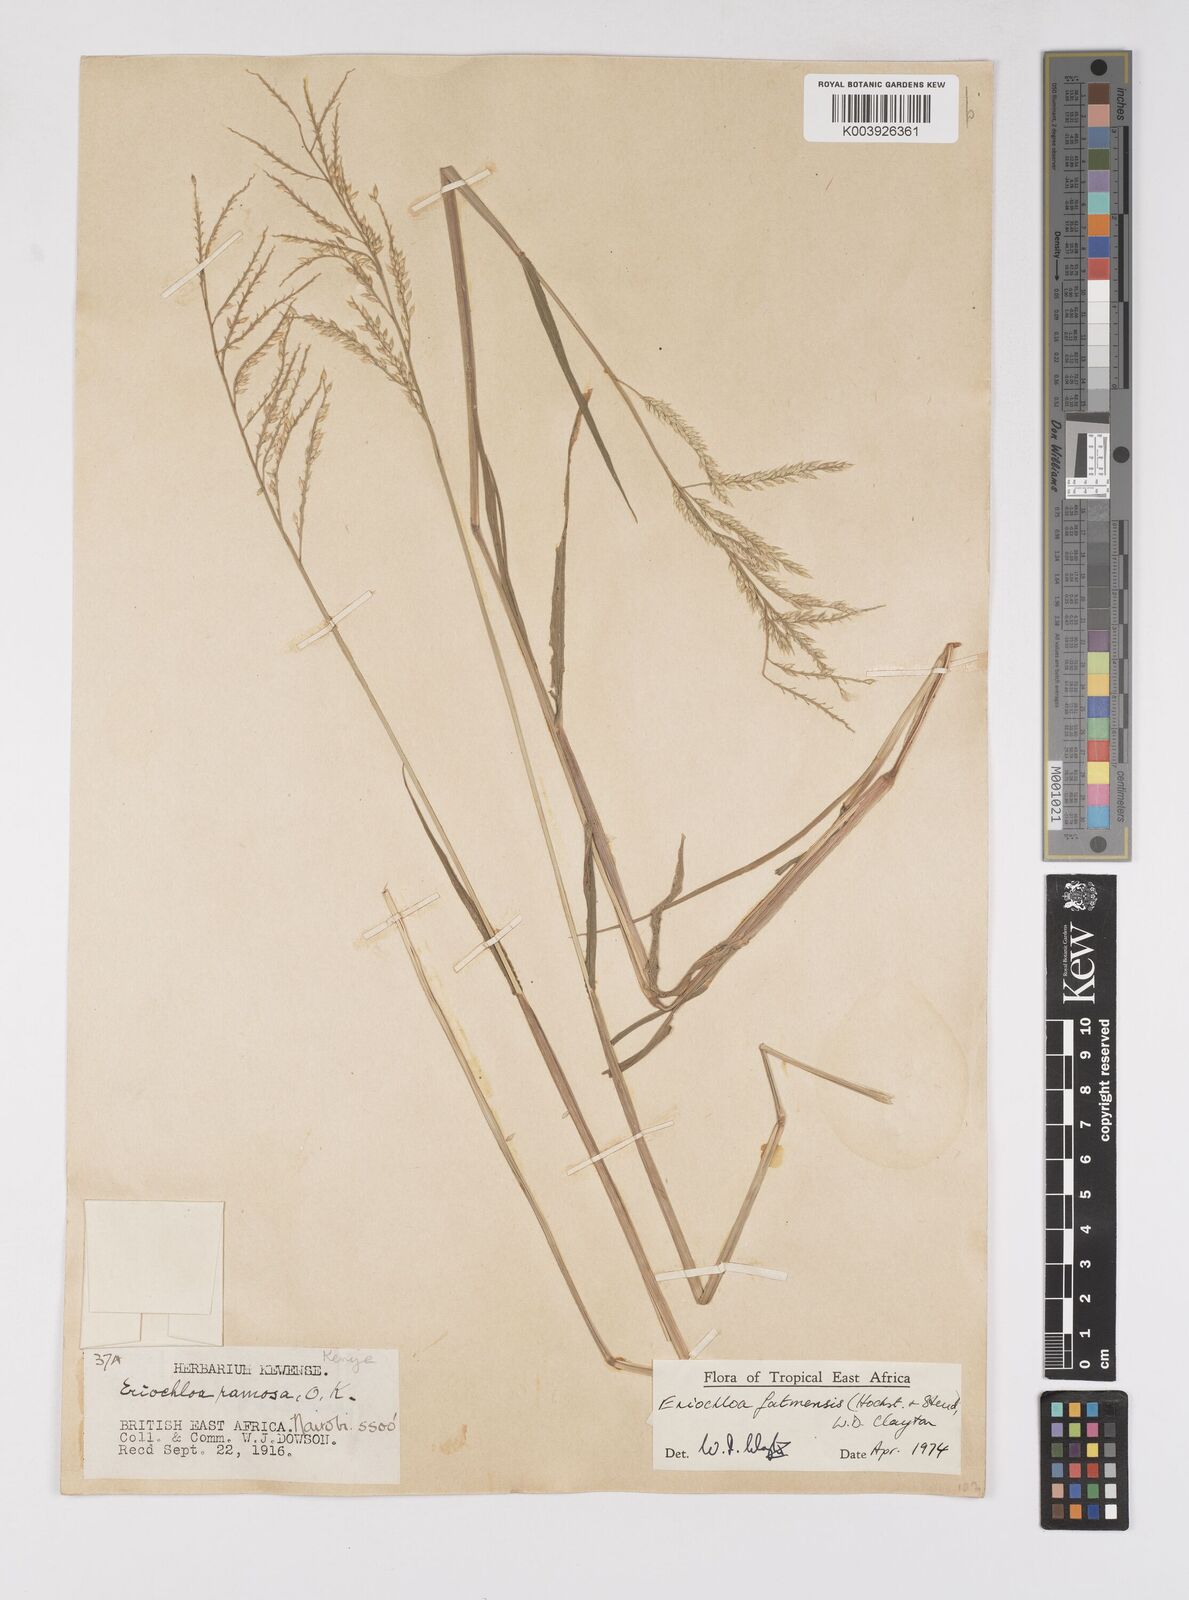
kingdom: Plantae
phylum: Tracheophyta
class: Liliopsida
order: Poales
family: Poaceae
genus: Eriochloa
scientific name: Eriochloa barbatus
